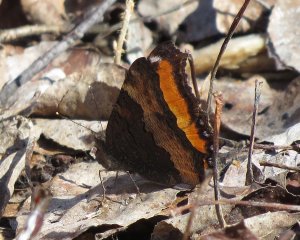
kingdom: Animalia
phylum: Arthropoda
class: Insecta
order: Lepidoptera
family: Nymphalidae
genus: Aglais
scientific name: Aglais milberti
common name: Milbert's Tortoiseshell
